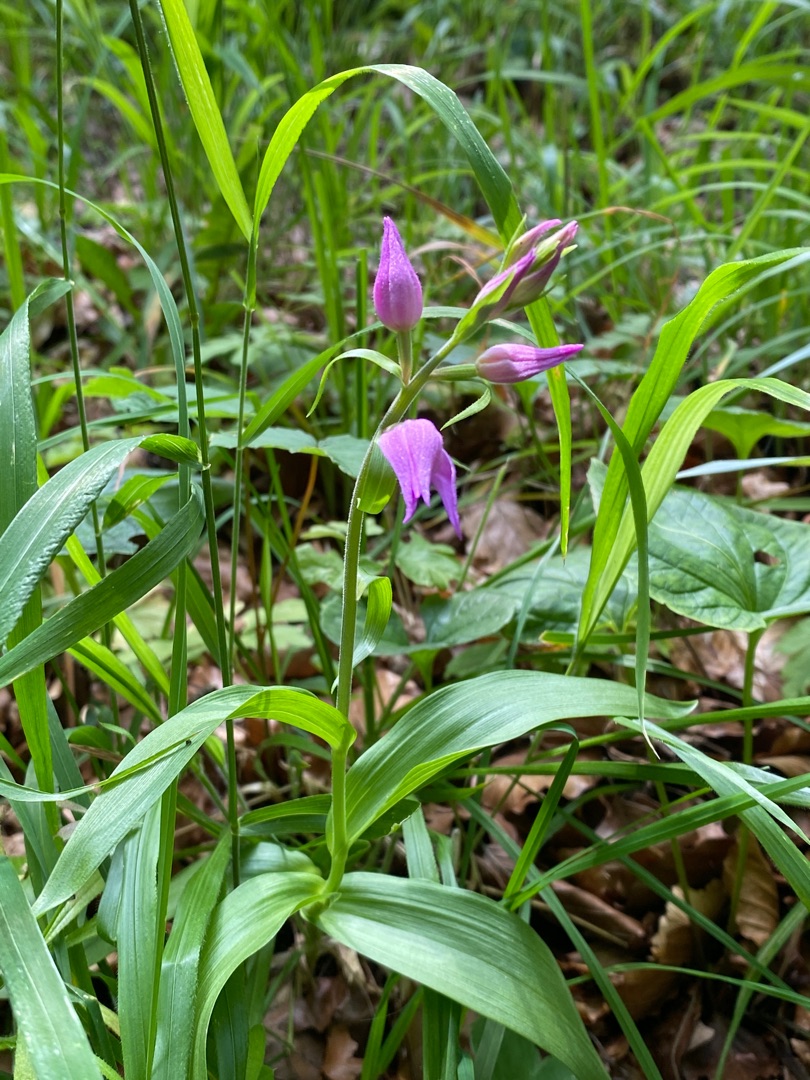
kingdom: Plantae
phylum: Tracheophyta
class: Liliopsida
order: Asparagales
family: Orchidaceae
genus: Cephalanthera
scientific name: Cephalanthera rubra
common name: Rød skovlilje
